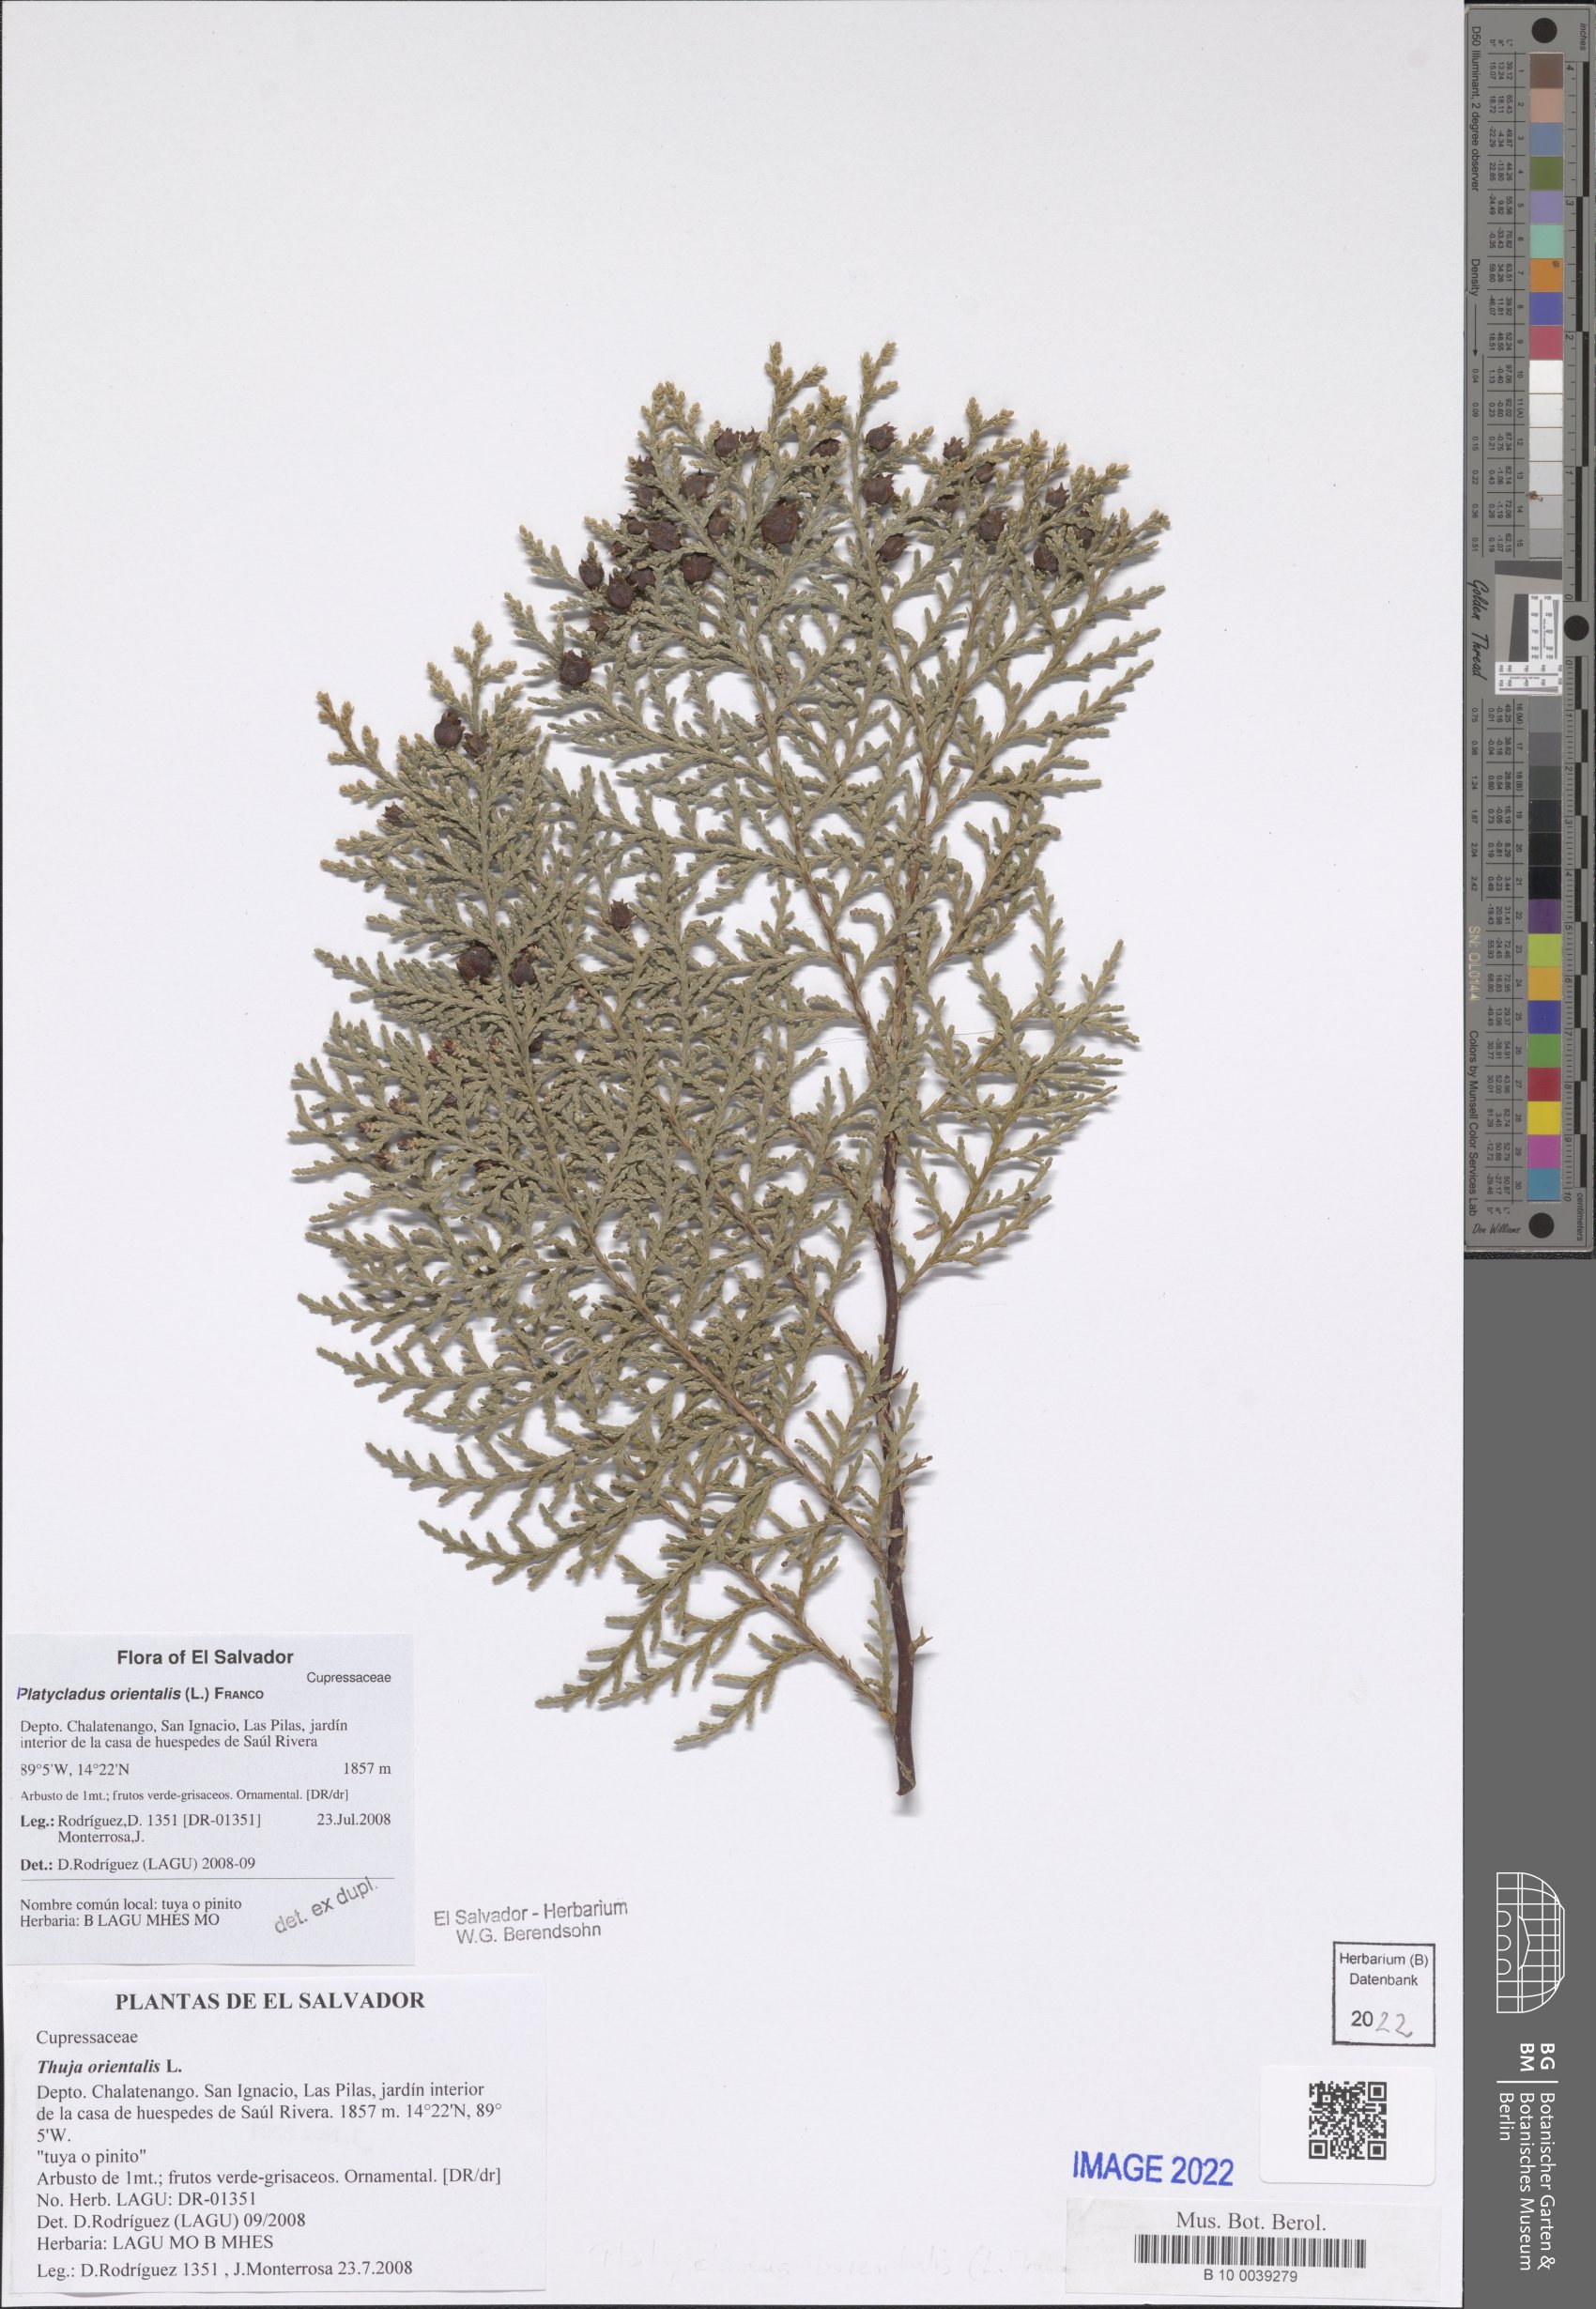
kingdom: Plantae
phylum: Tracheophyta
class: Pinopsida
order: Pinales
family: Cupressaceae
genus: Platycladus
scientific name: Platycladus orientalis
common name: Chinese thuja
